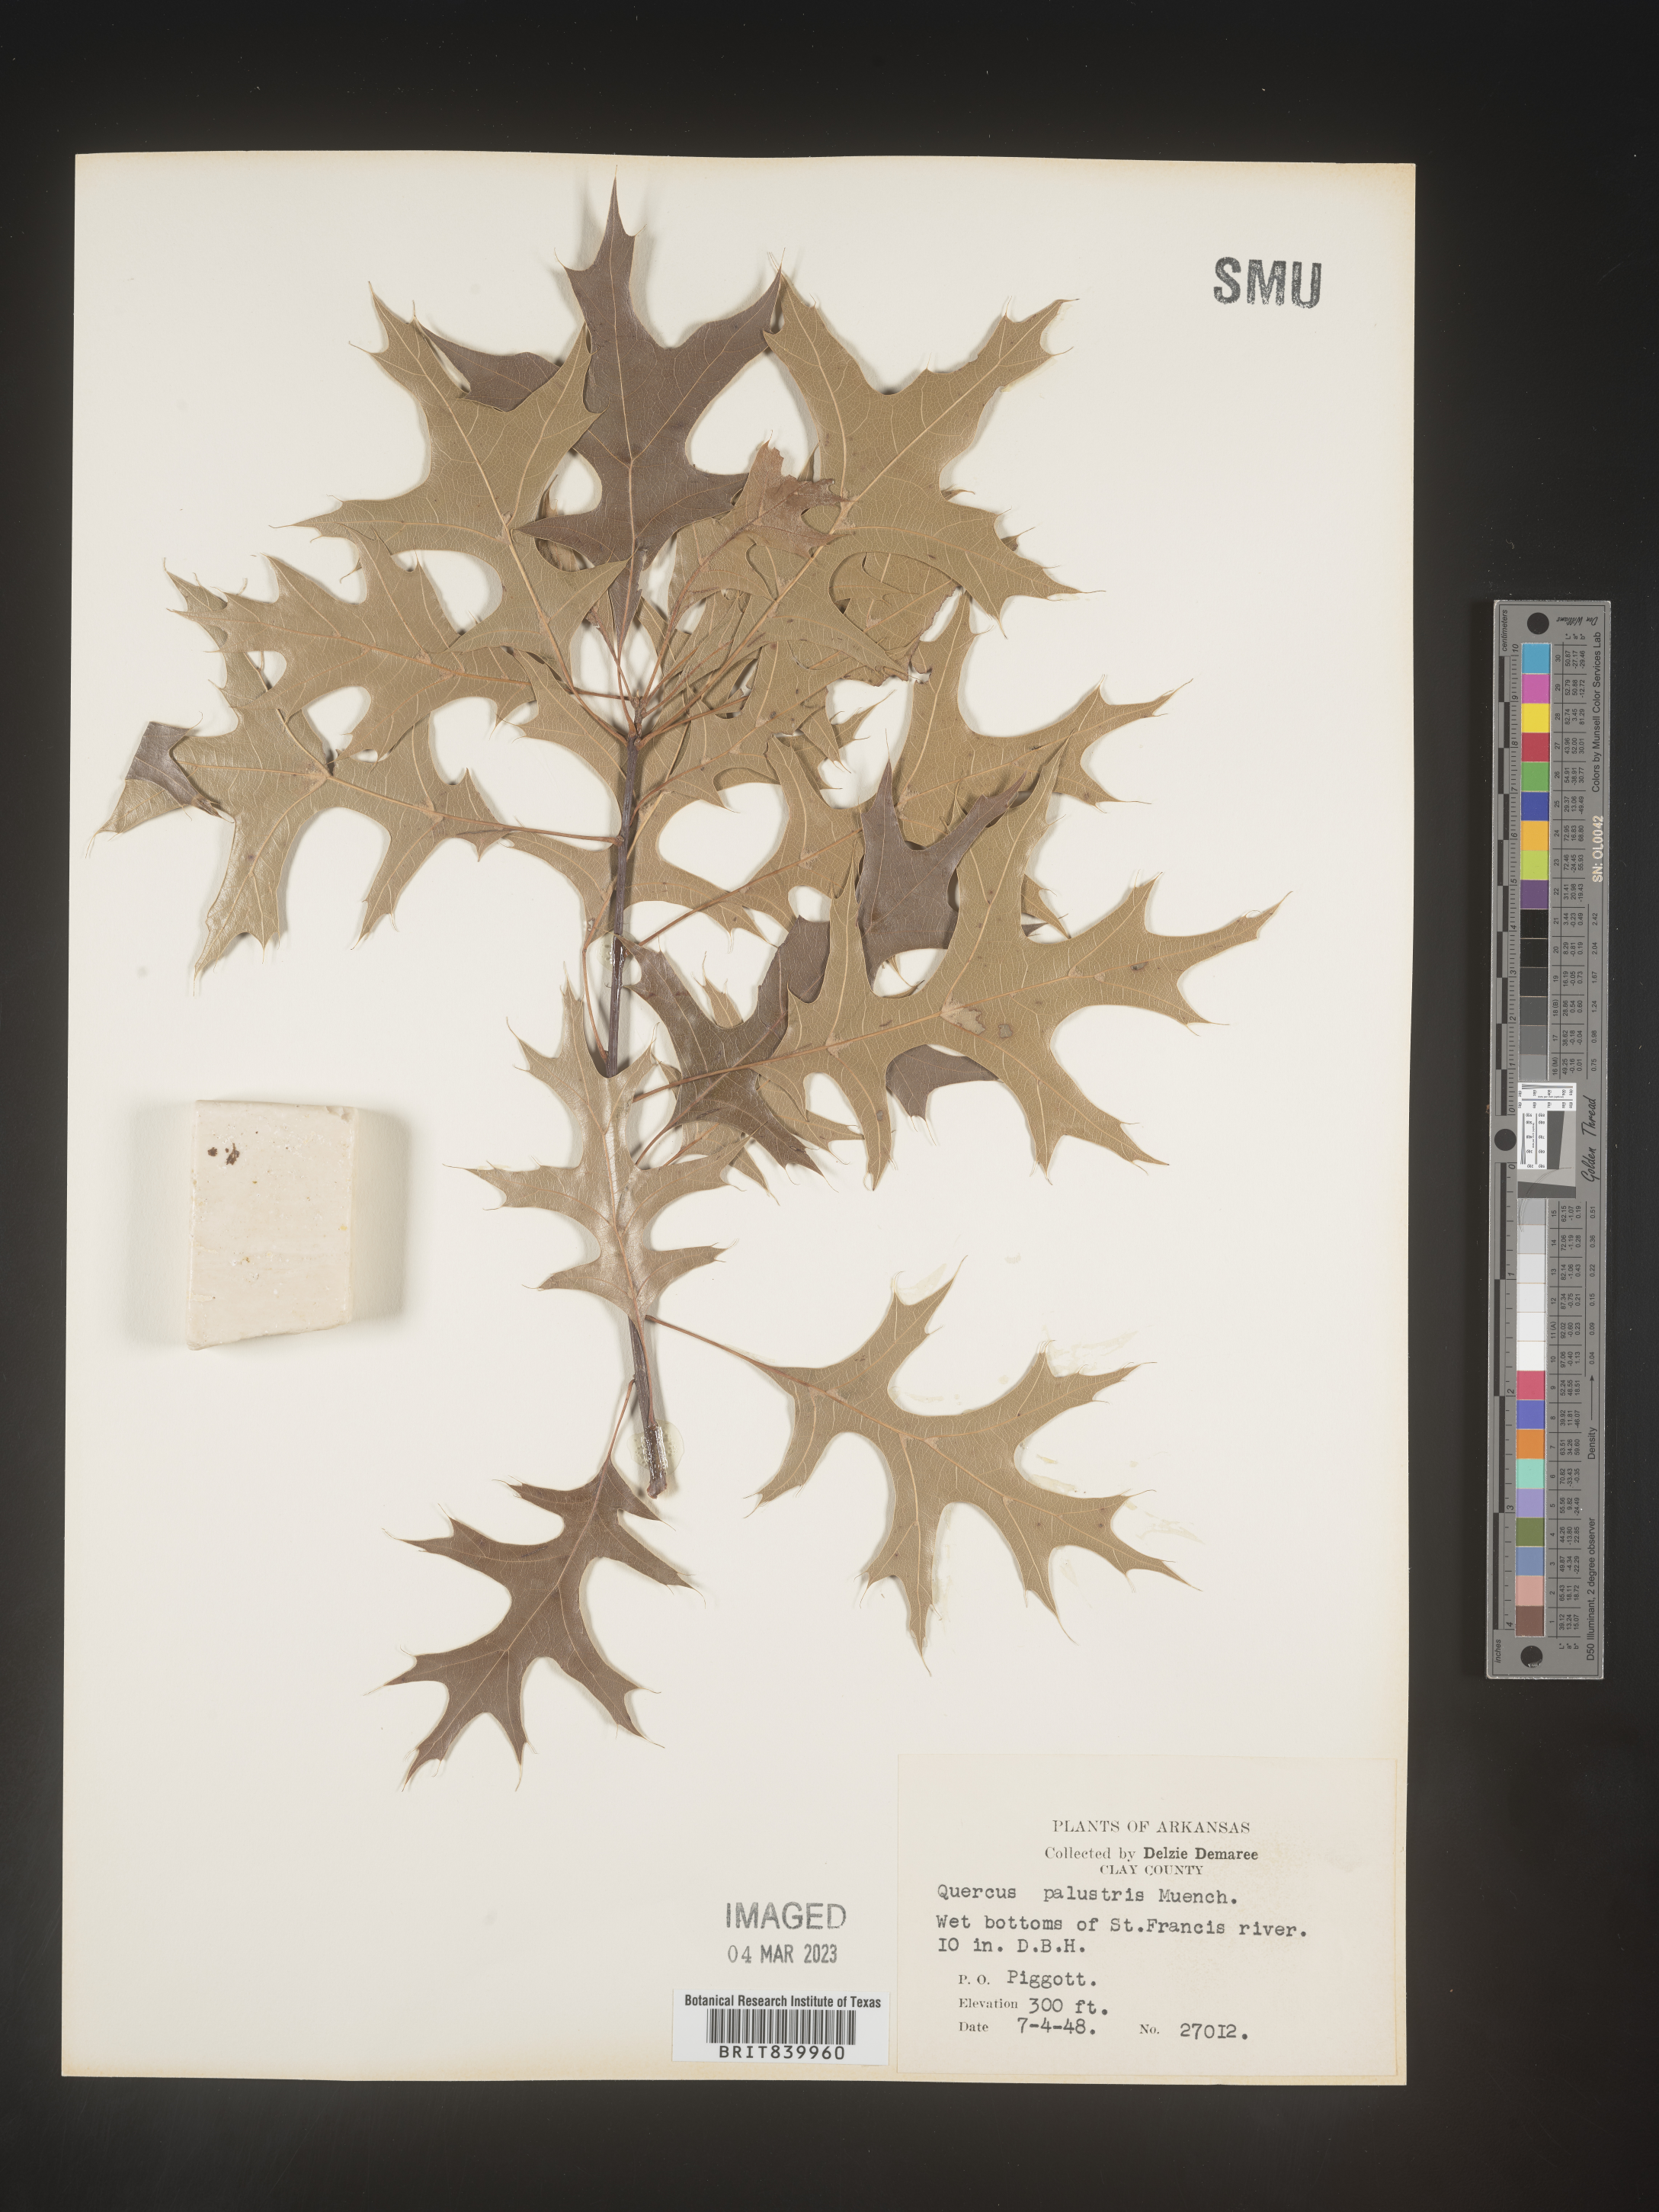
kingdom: Plantae
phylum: Tracheophyta
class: Magnoliopsida
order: Fagales
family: Fagaceae
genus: Quercus
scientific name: Quercus palustris
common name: Pin oak
